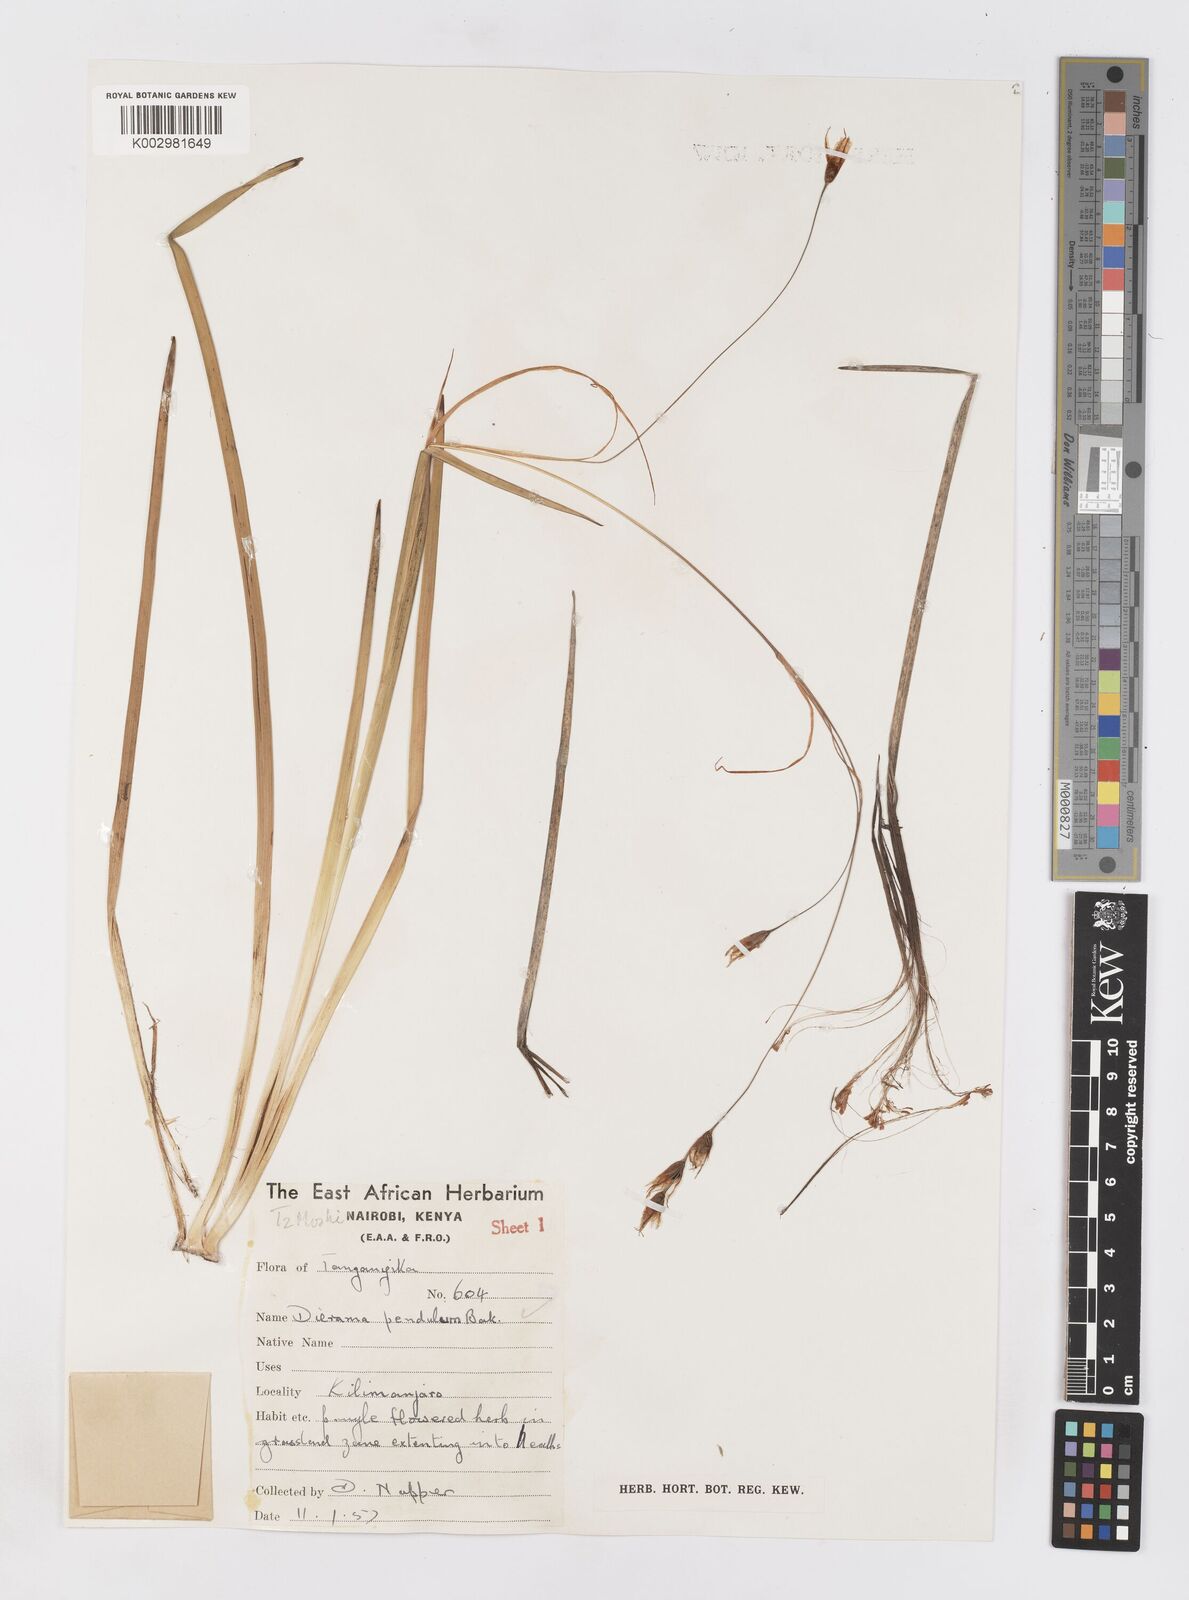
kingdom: Plantae
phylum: Tracheophyta
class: Liliopsida
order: Asparagales
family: Iridaceae
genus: Dierama
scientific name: Dierama cupuliflorum
